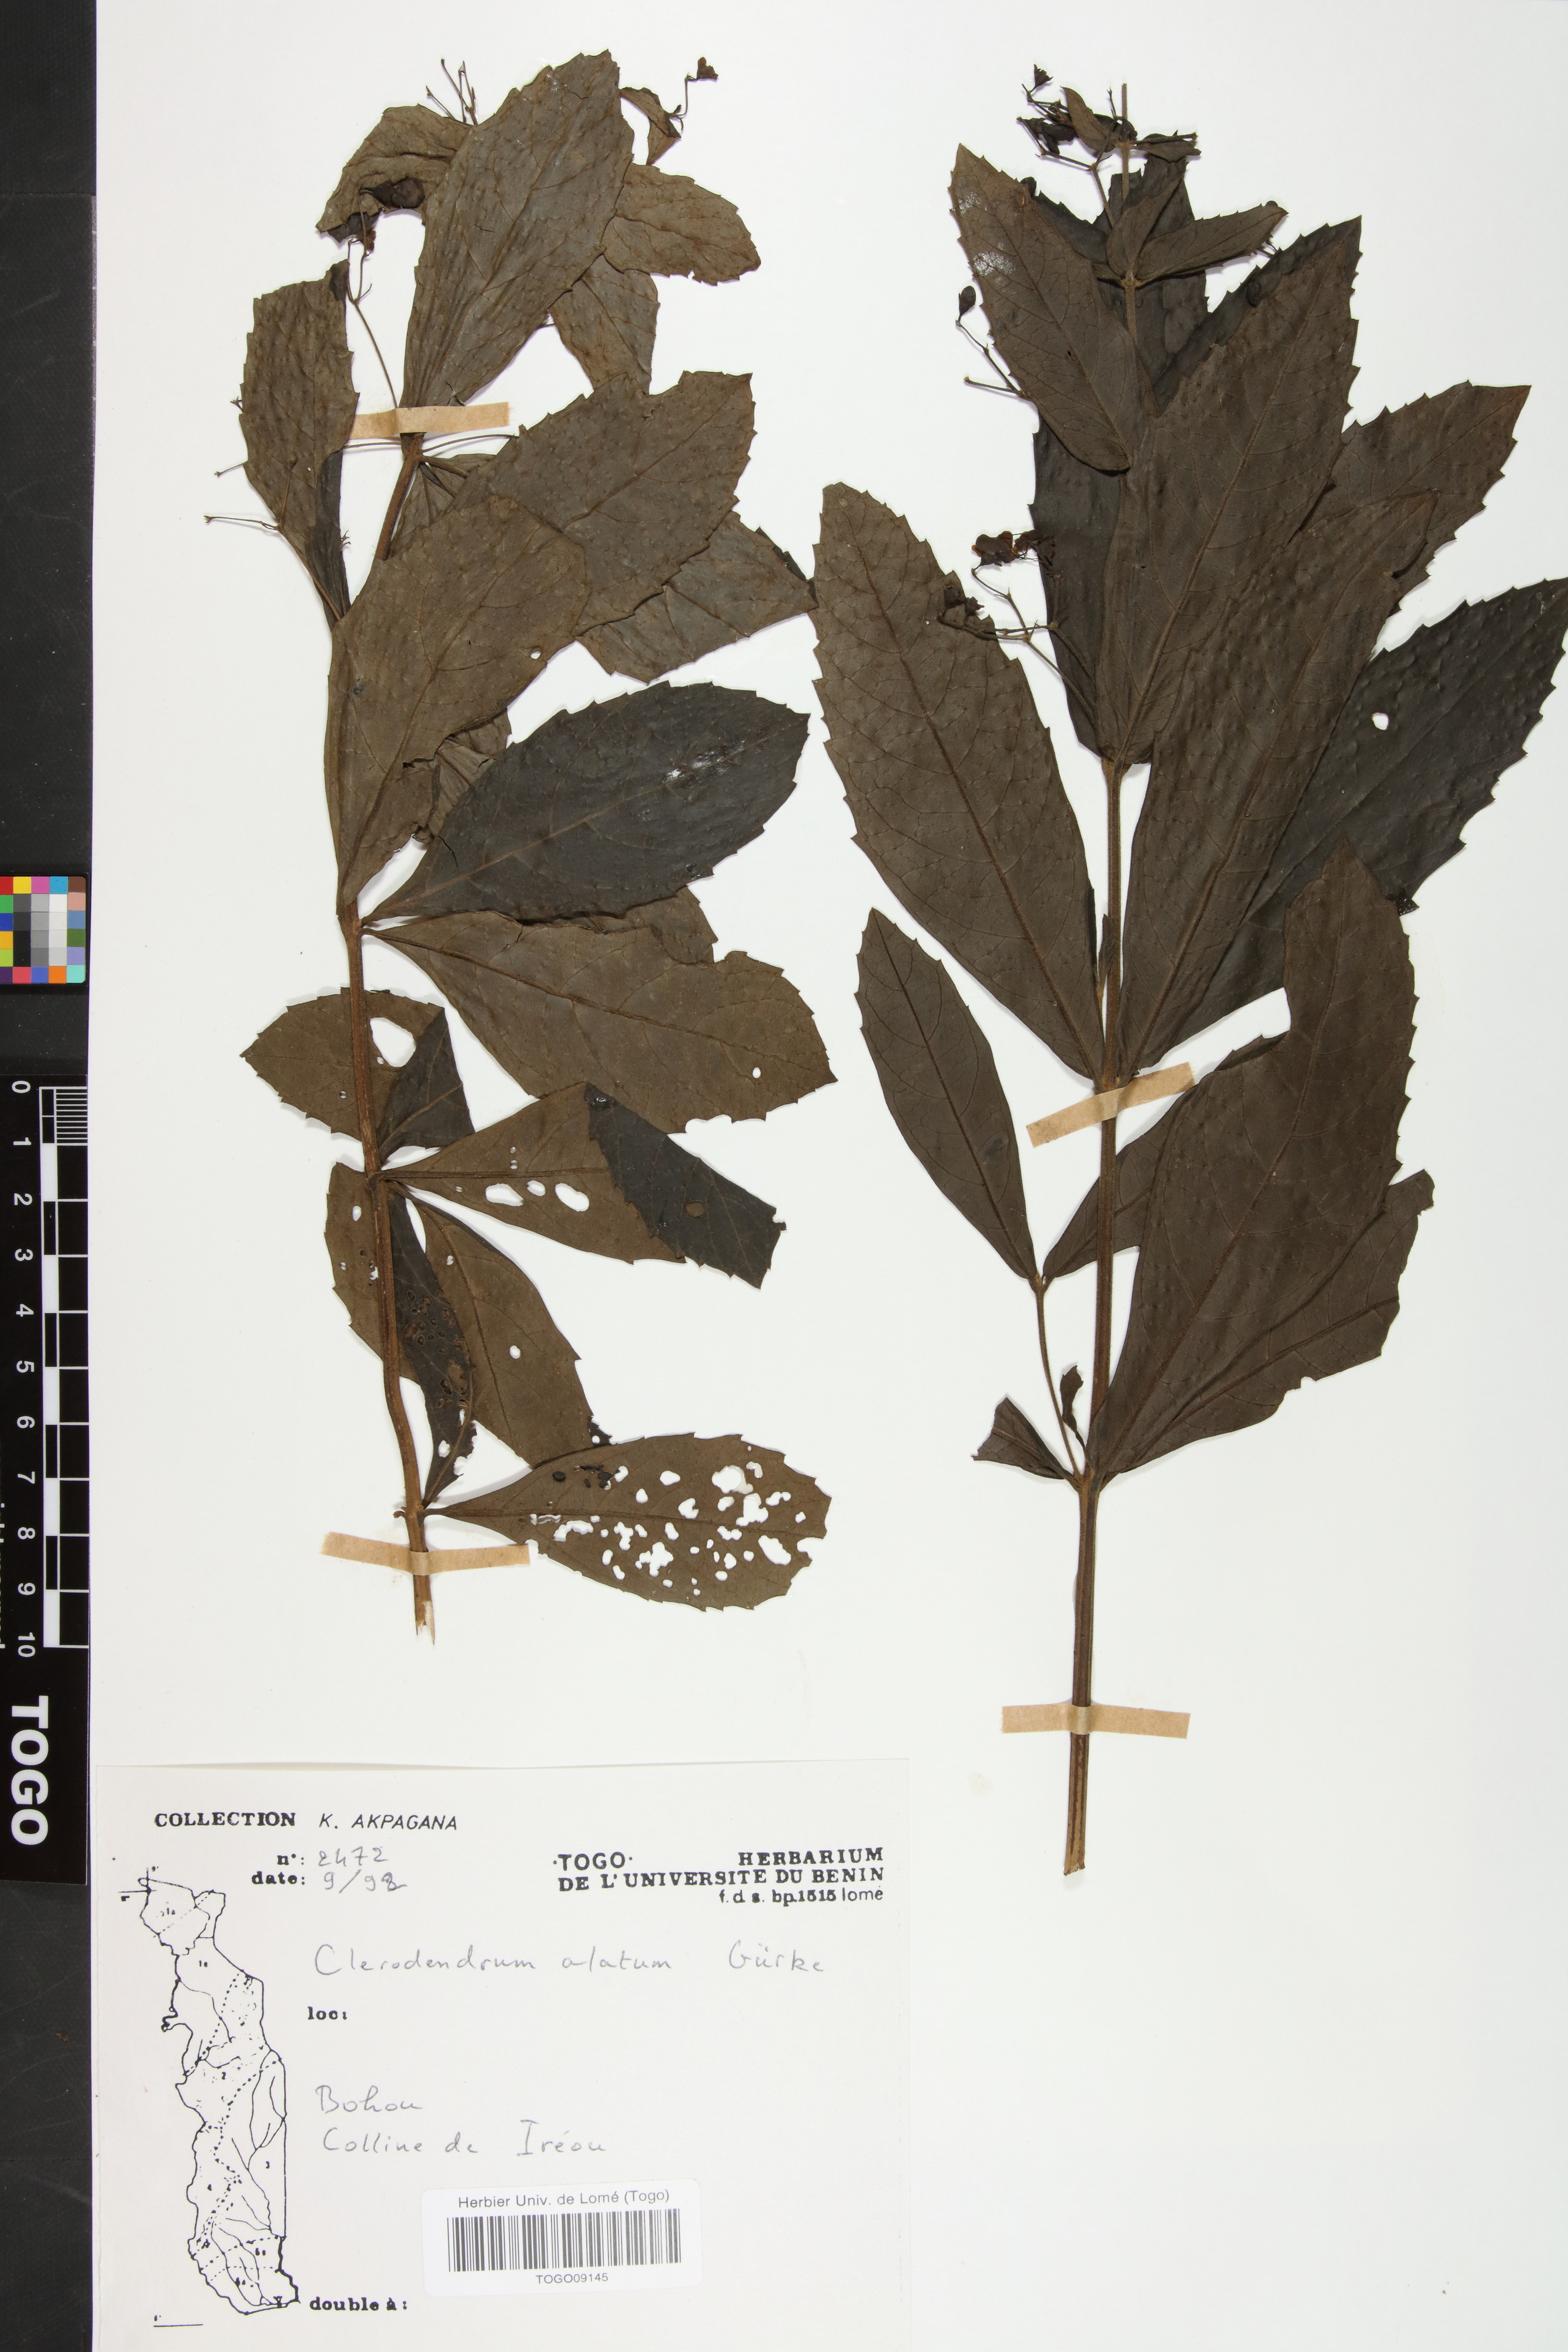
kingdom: Plantae
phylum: Tracheophyta
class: Magnoliopsida
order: Lamiales
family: Lamiaceae
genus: Clerodendrum
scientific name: Clerodendrum
